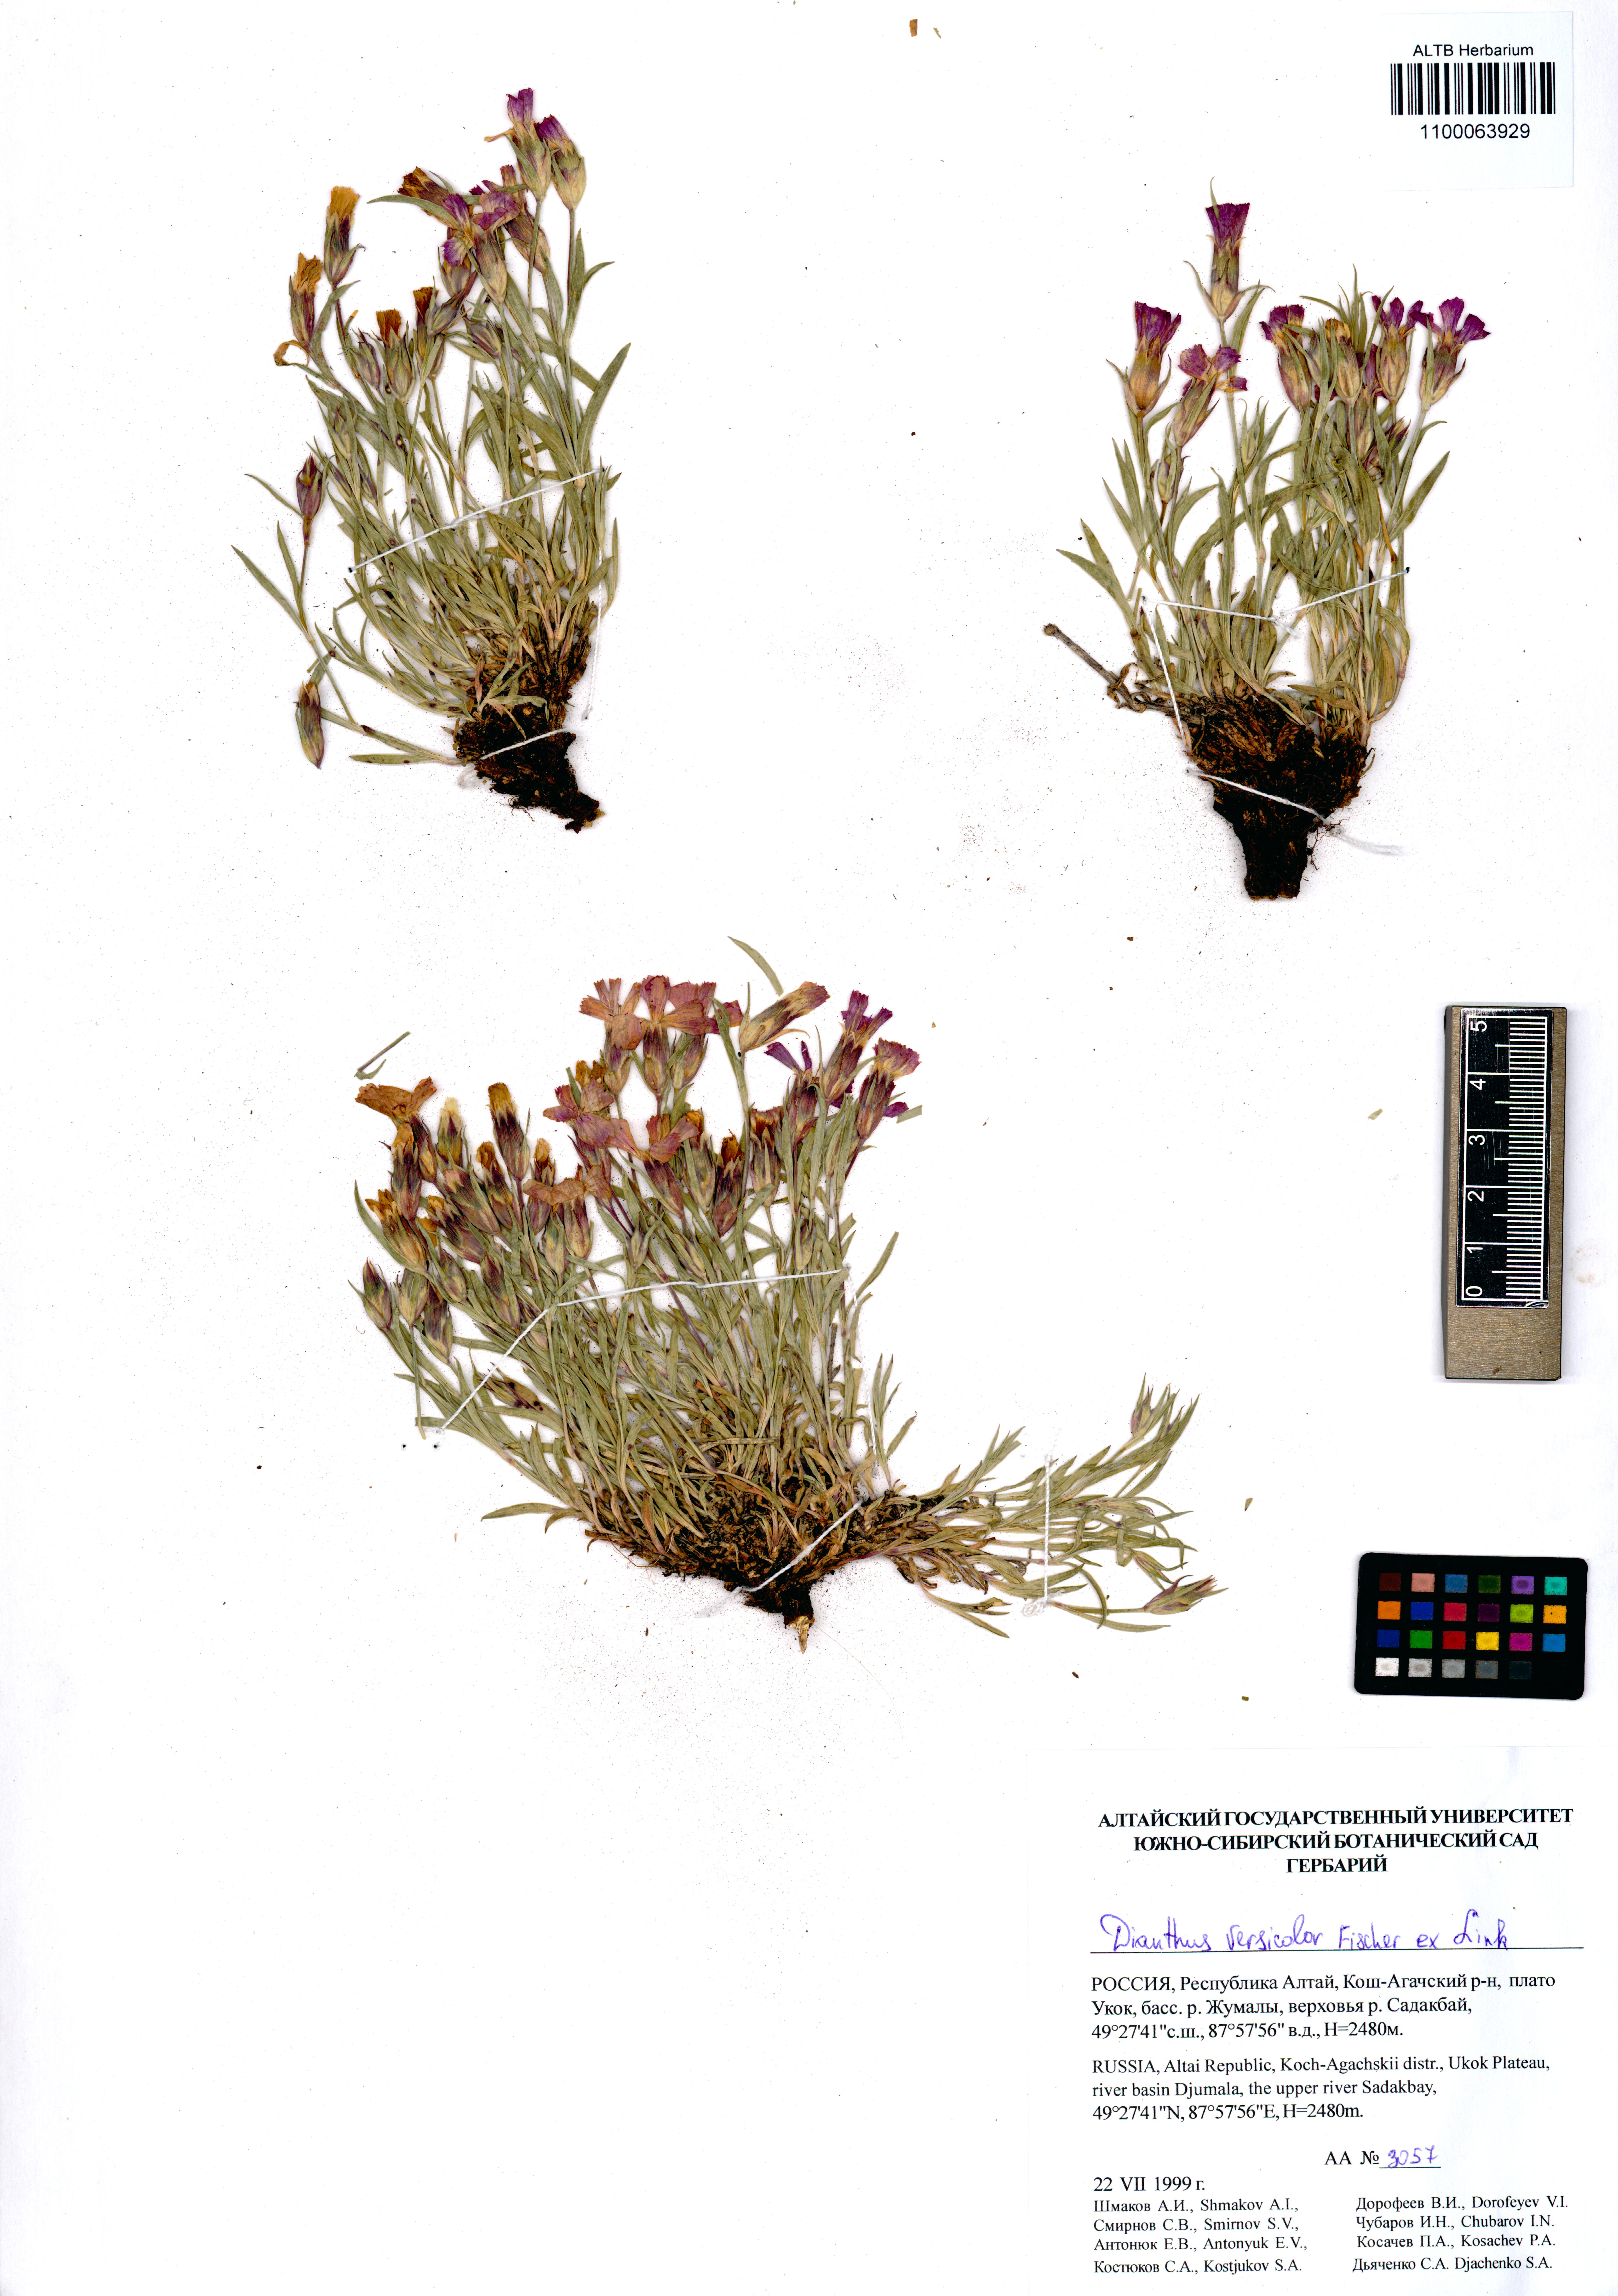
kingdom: Plantae
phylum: Tracheophyta
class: Magnoliopsida
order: Caryophyllales
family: Caryophyllaceae
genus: Dianthus
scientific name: Dianthus chinensis
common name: Rainbow pink
